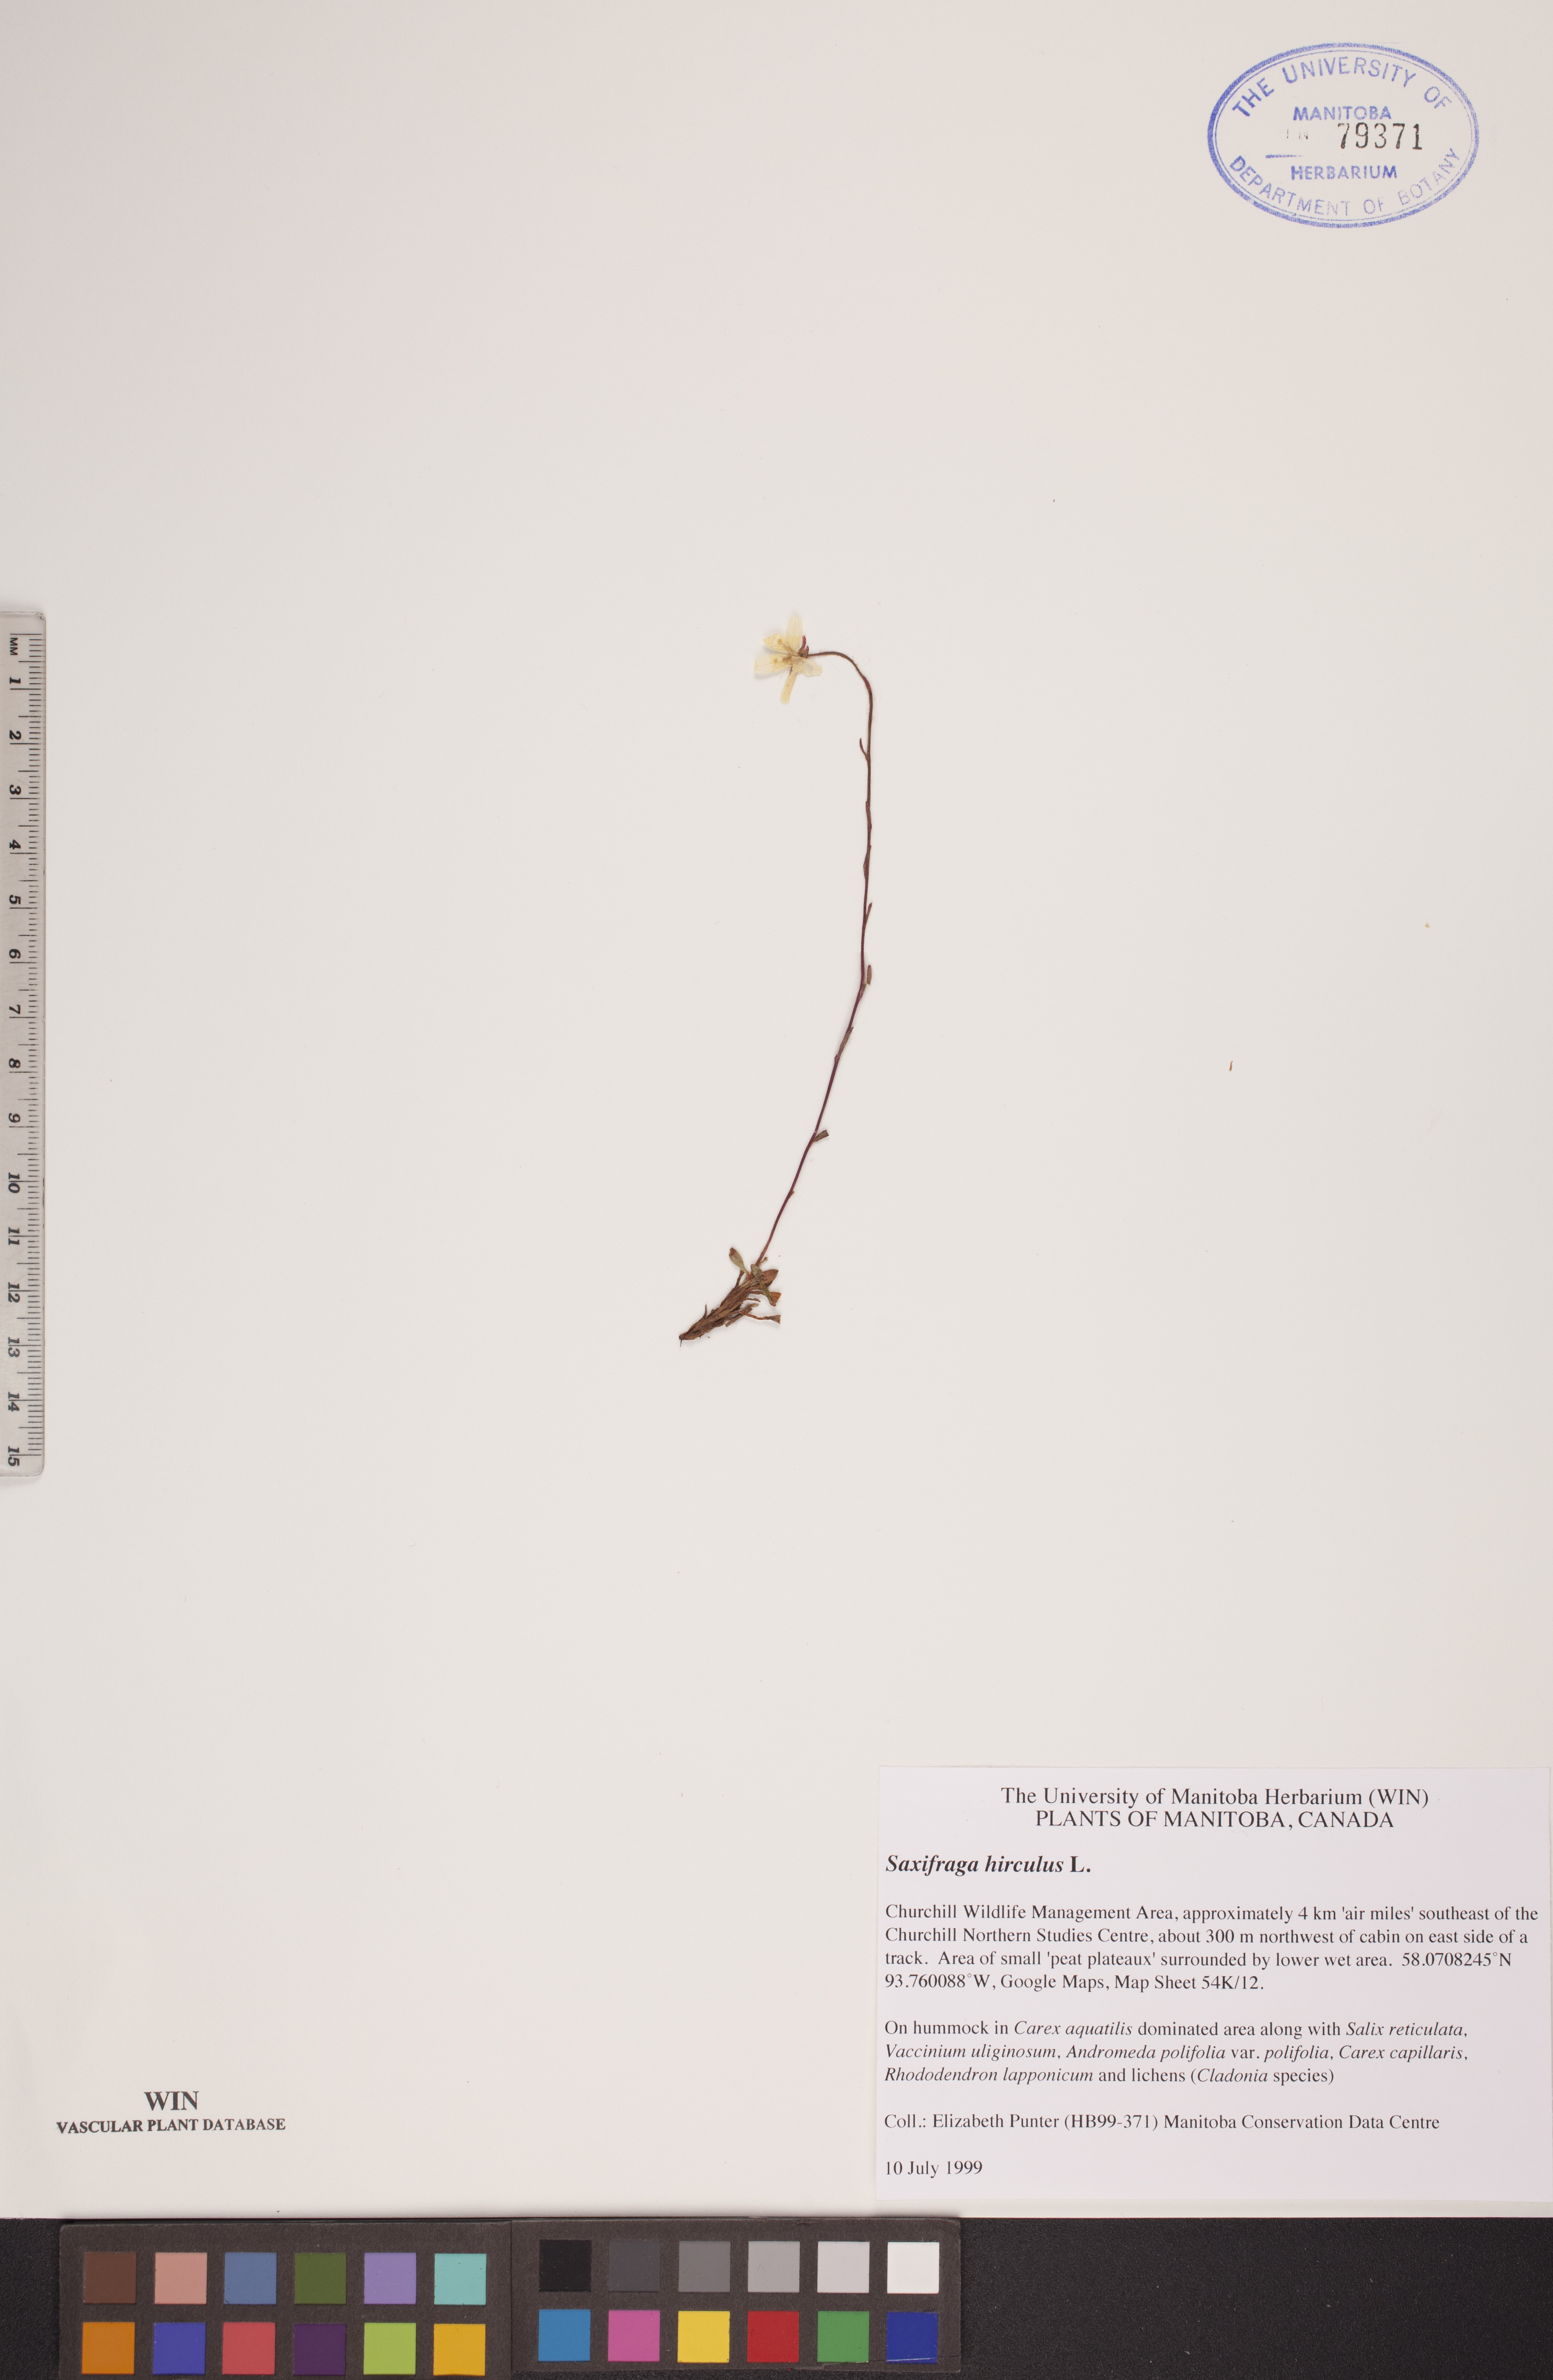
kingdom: Plantae
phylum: Tracheophyta
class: Magnoliopsida
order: Saxifragales
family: Saxifragaceae
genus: Saxifraga
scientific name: Saxifraga hirculus
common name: Yellow marsh saxifrage
